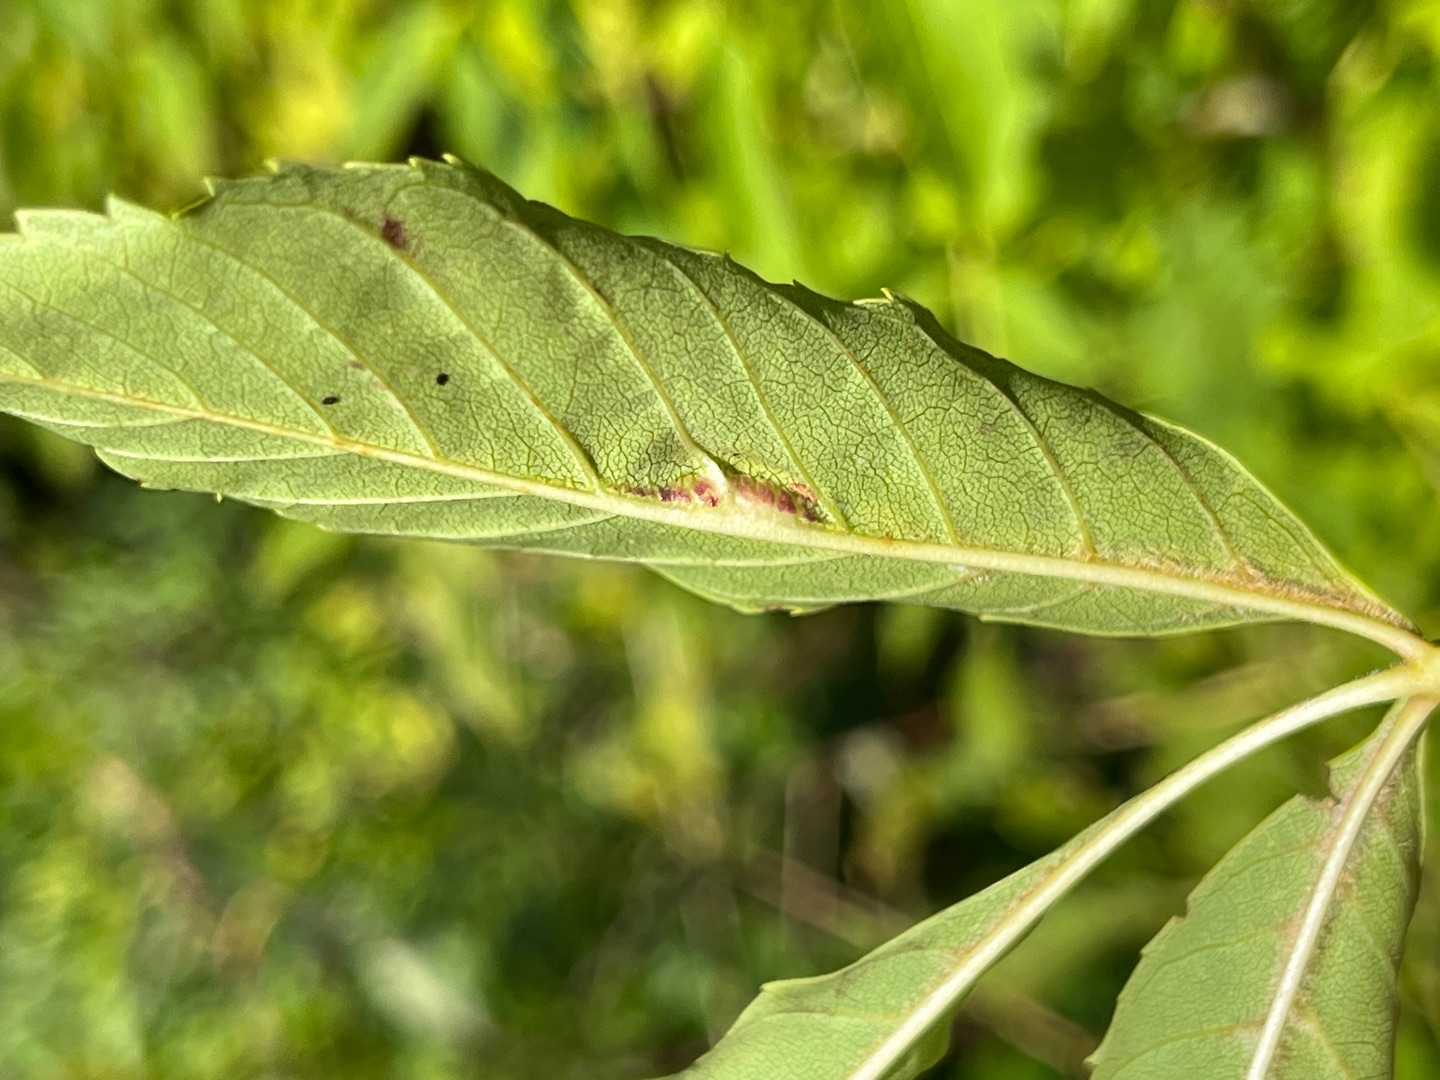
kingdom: Animalia
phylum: Arthropoda
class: Insecta
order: Diptera
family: Cecidomyiidae
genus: Dasineura
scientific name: Dasineura fraxini
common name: Orange askebladgalmyg
